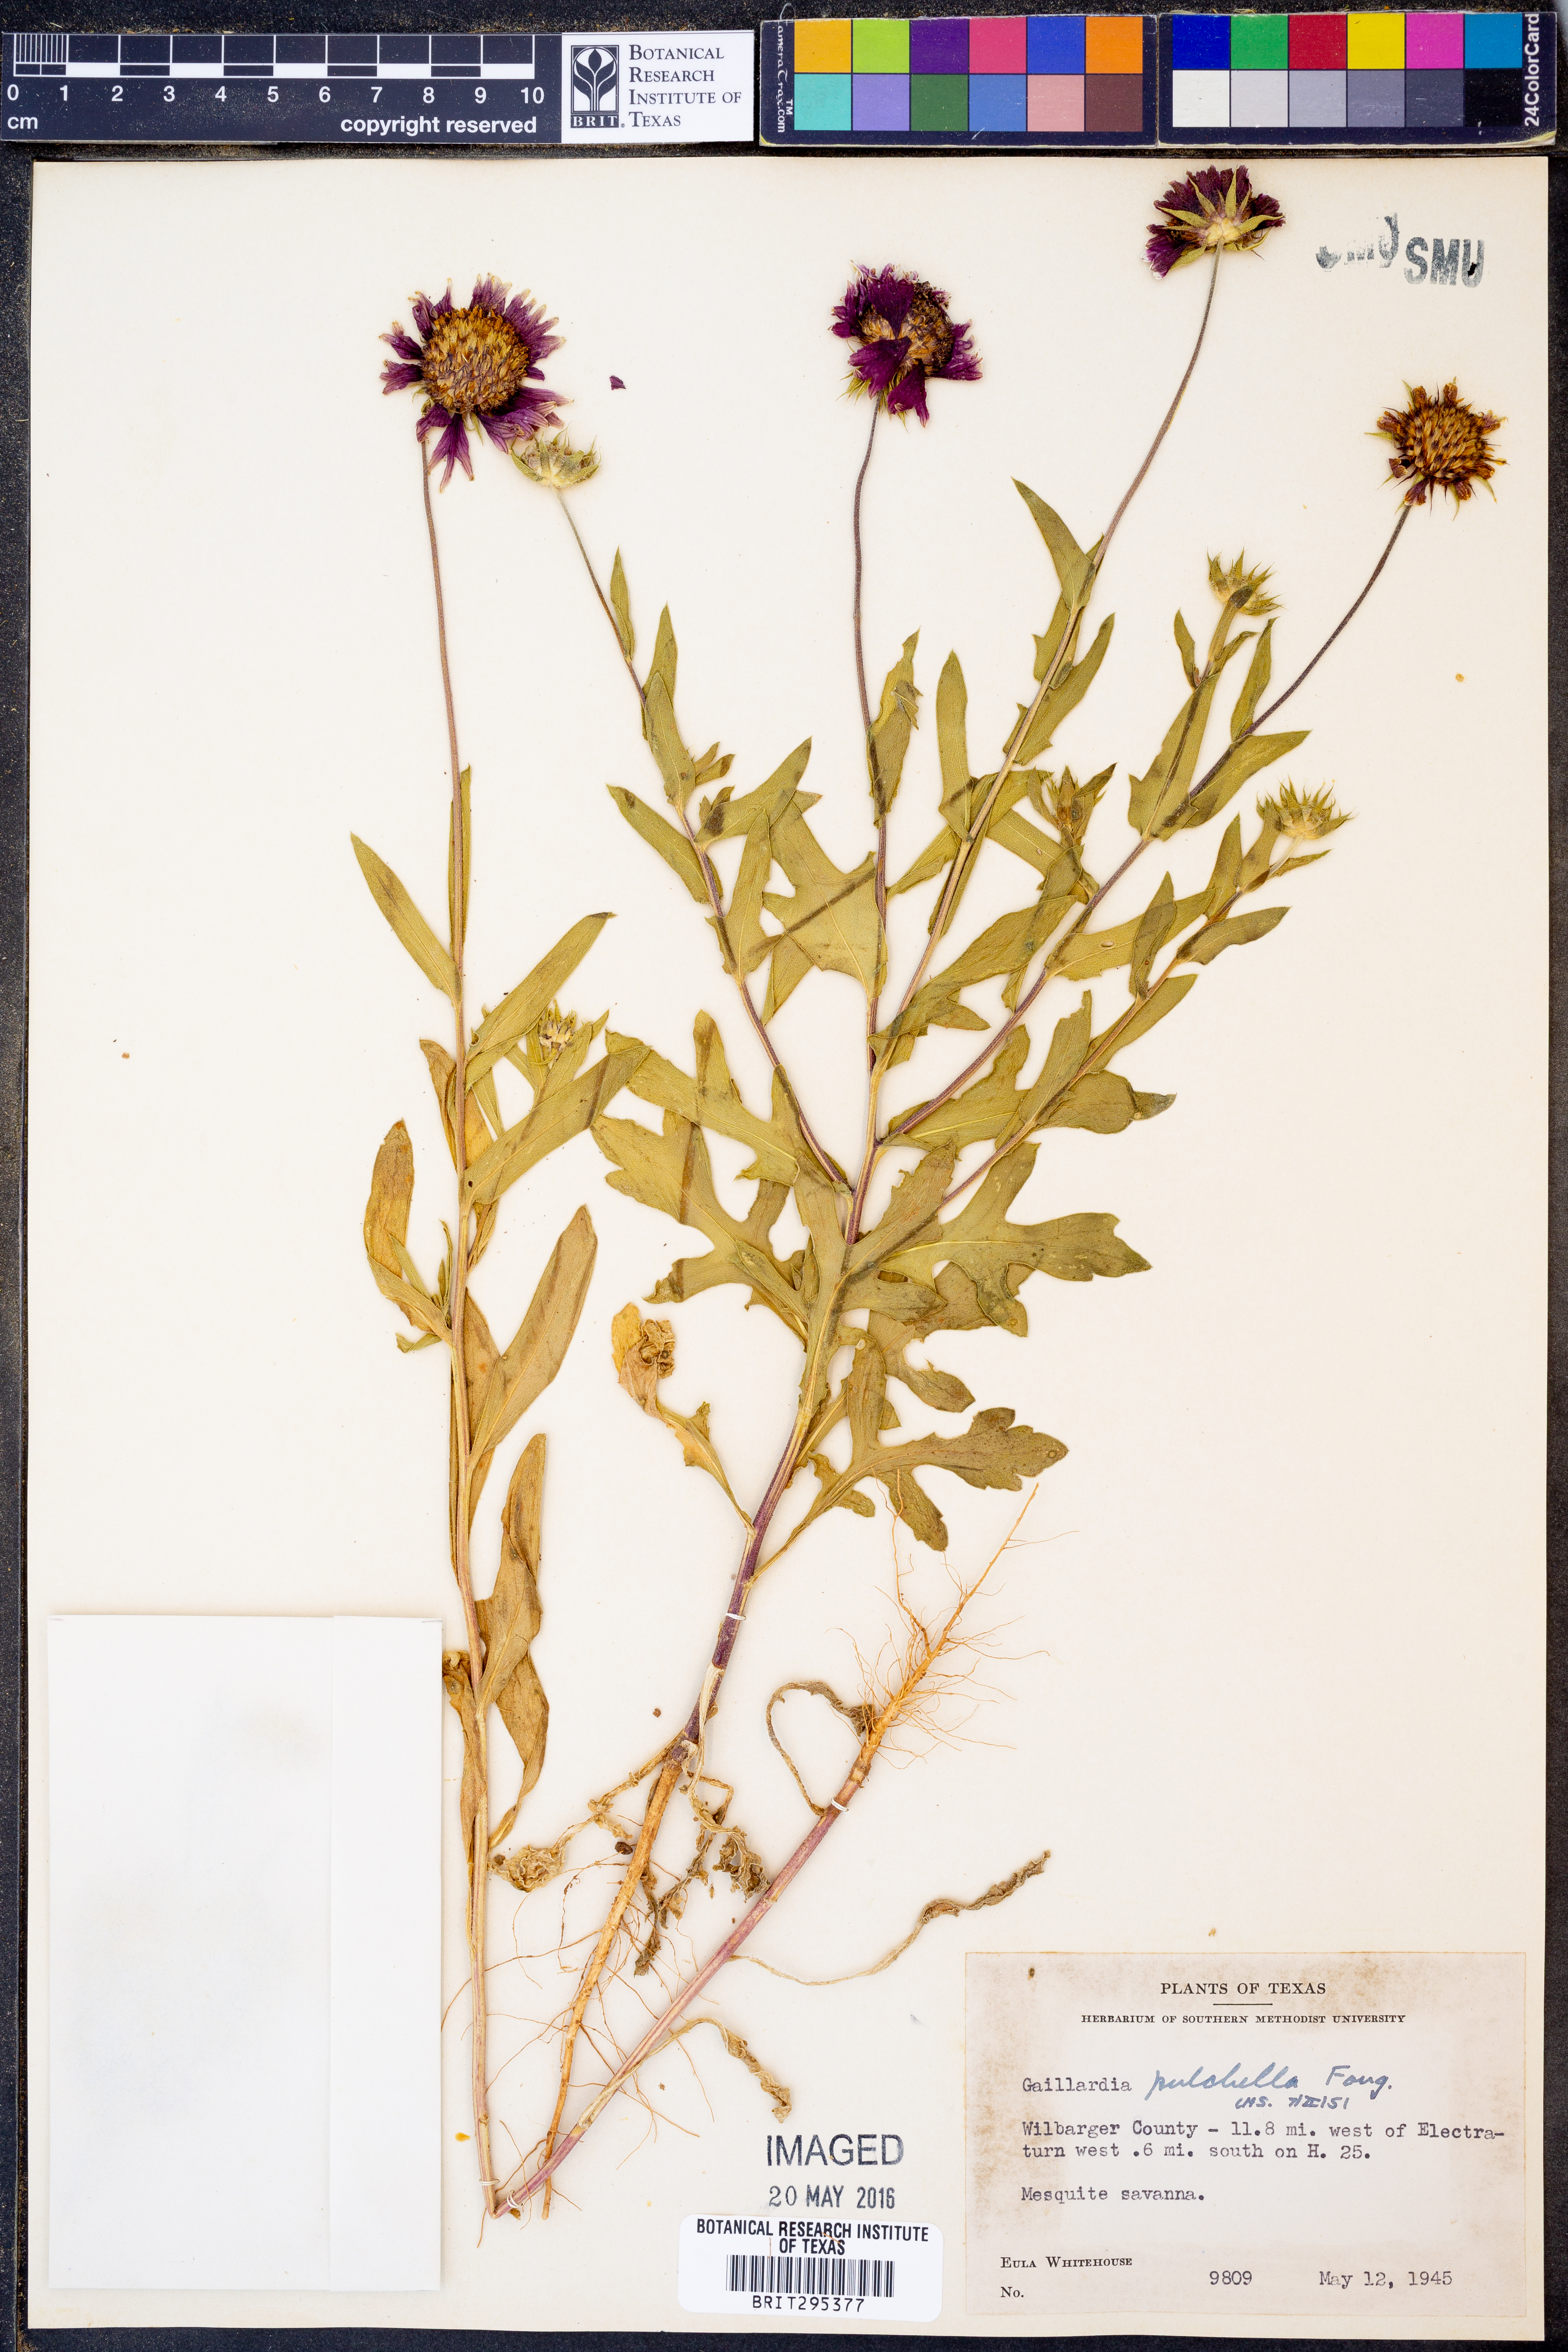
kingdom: Plantae
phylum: Tracheophyta
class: Magnoliopsida
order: Asterales
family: Asteraceae
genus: Gaillardia
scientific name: Gaillardia pulchella
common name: Firewheel
